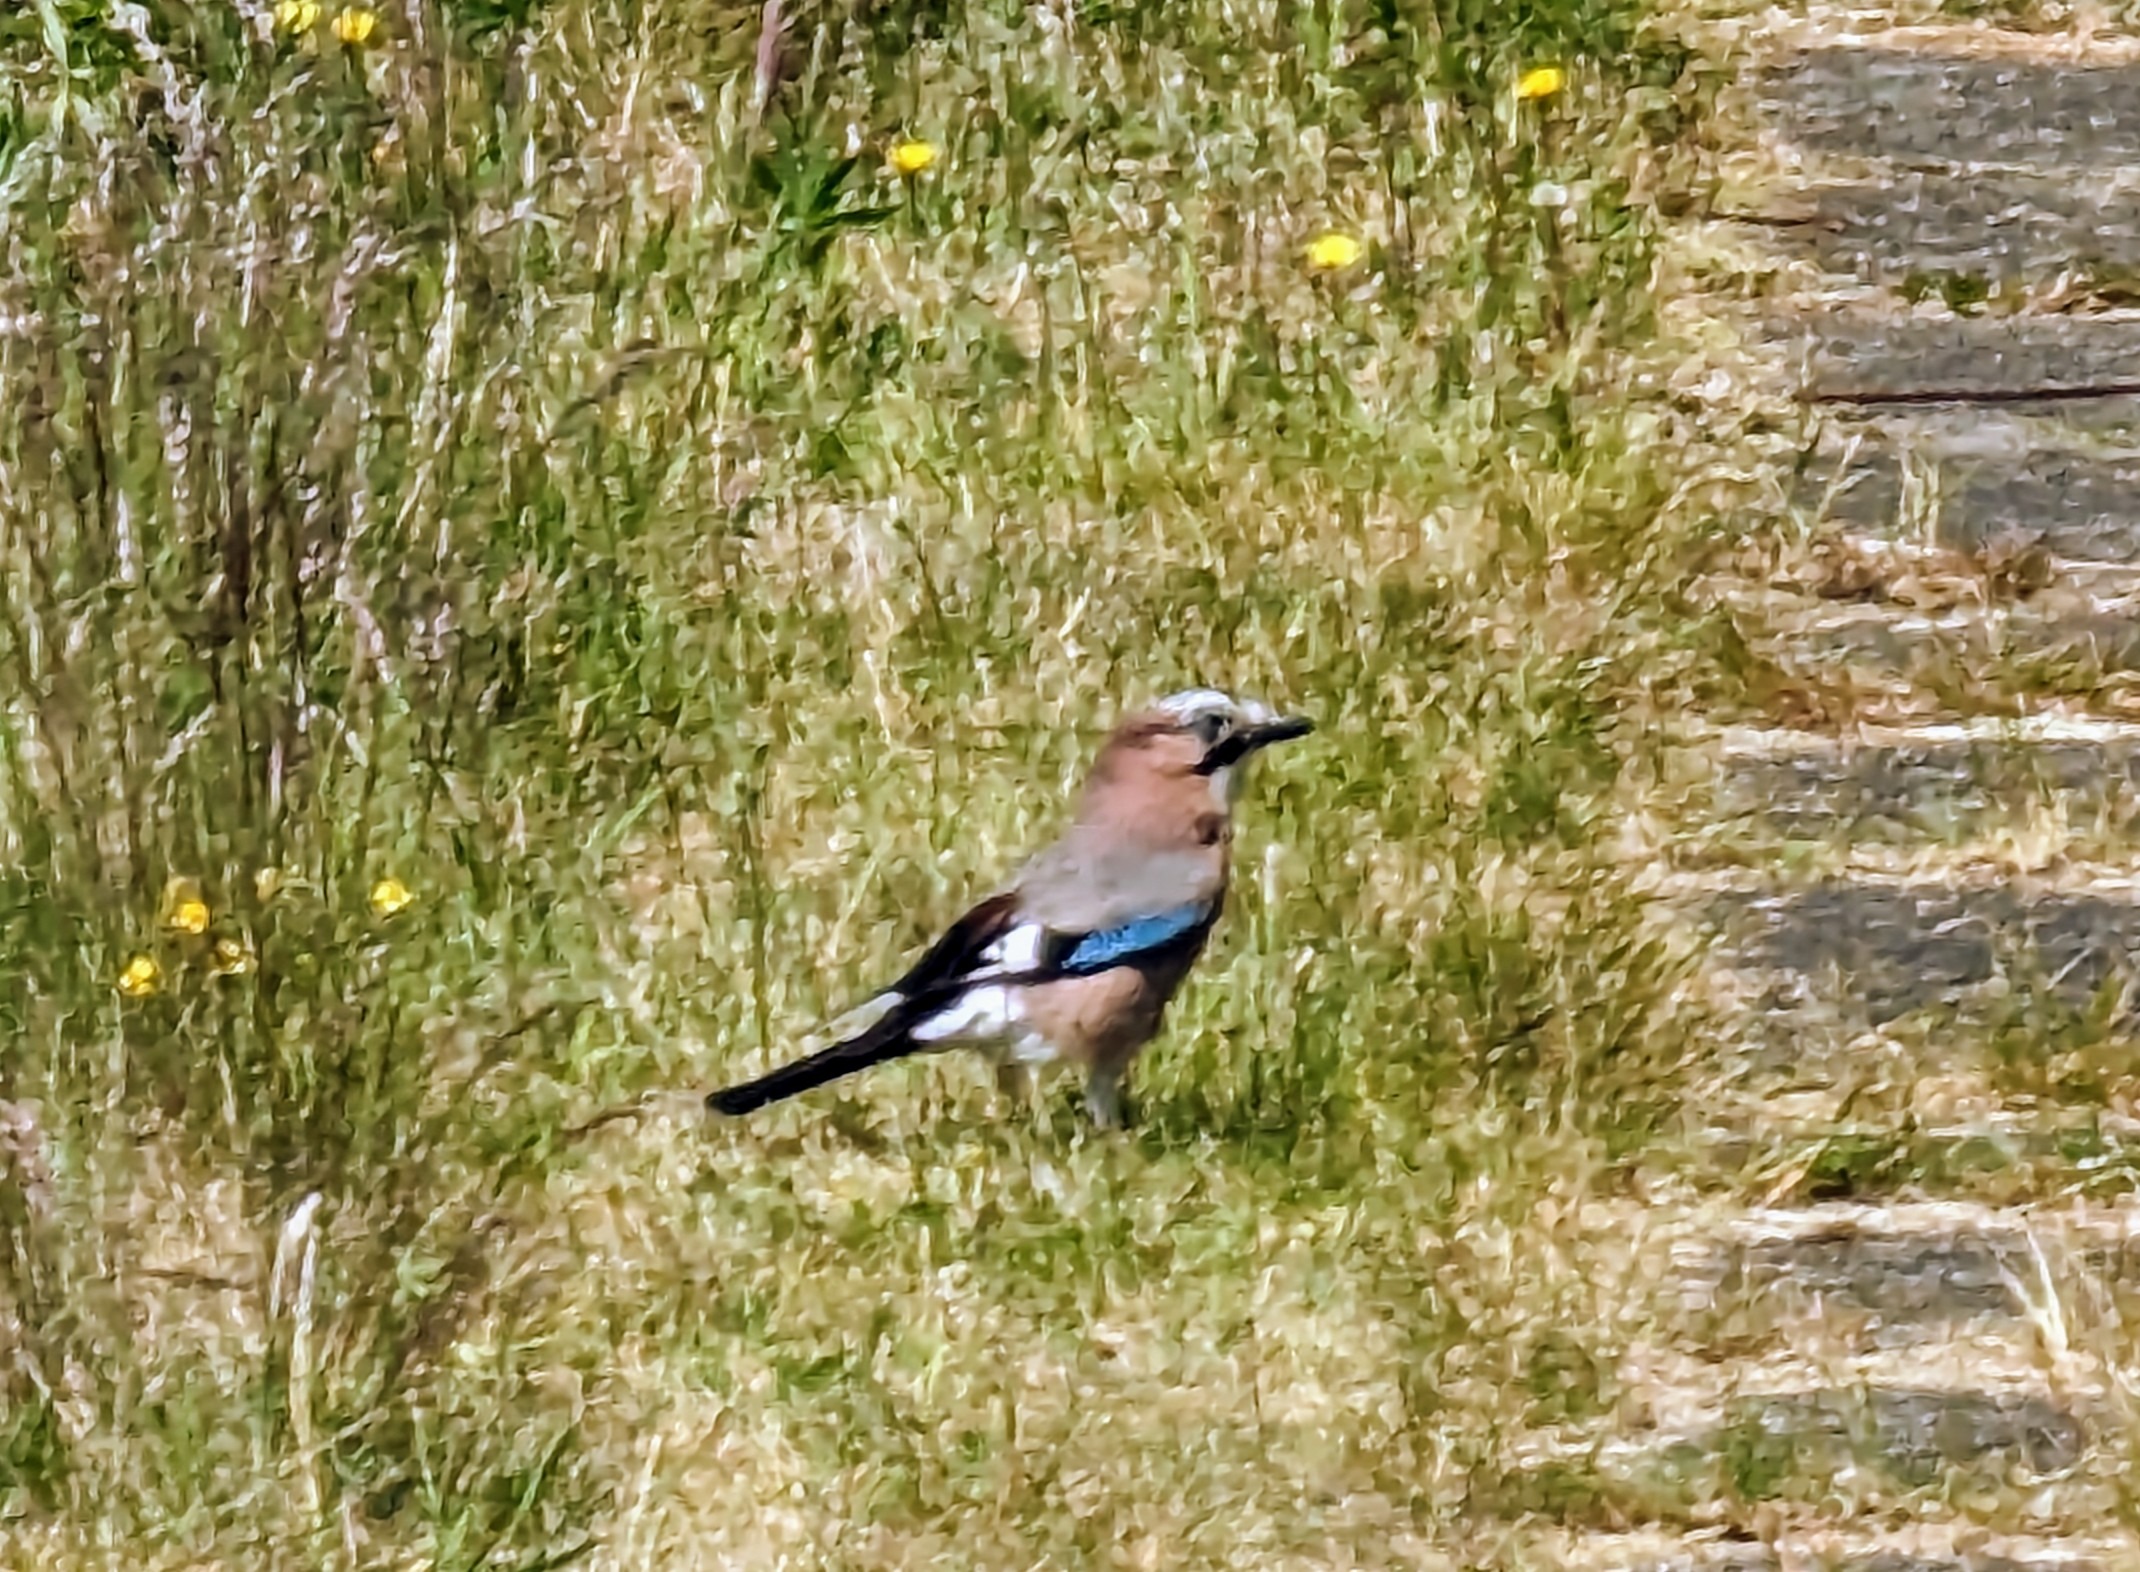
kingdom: Animalia
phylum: Chordata
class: Aves
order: Passeriformes
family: Corvidae
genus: Garrulus
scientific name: Garrulus glandarius
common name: Skovskade
